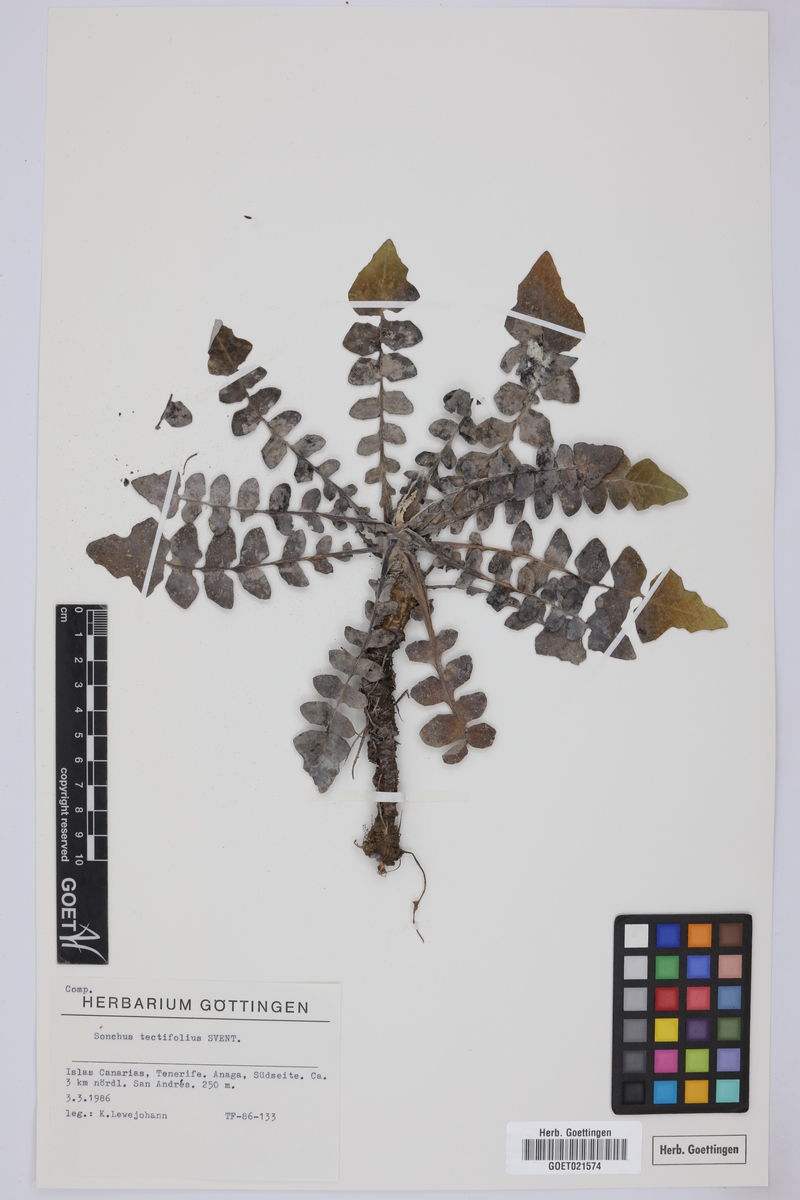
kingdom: Plantae
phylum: Tracheophyta
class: Magnoliopsida
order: Asterales
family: Asteraceae
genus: Sonchus
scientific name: Sonchus tectifolius
